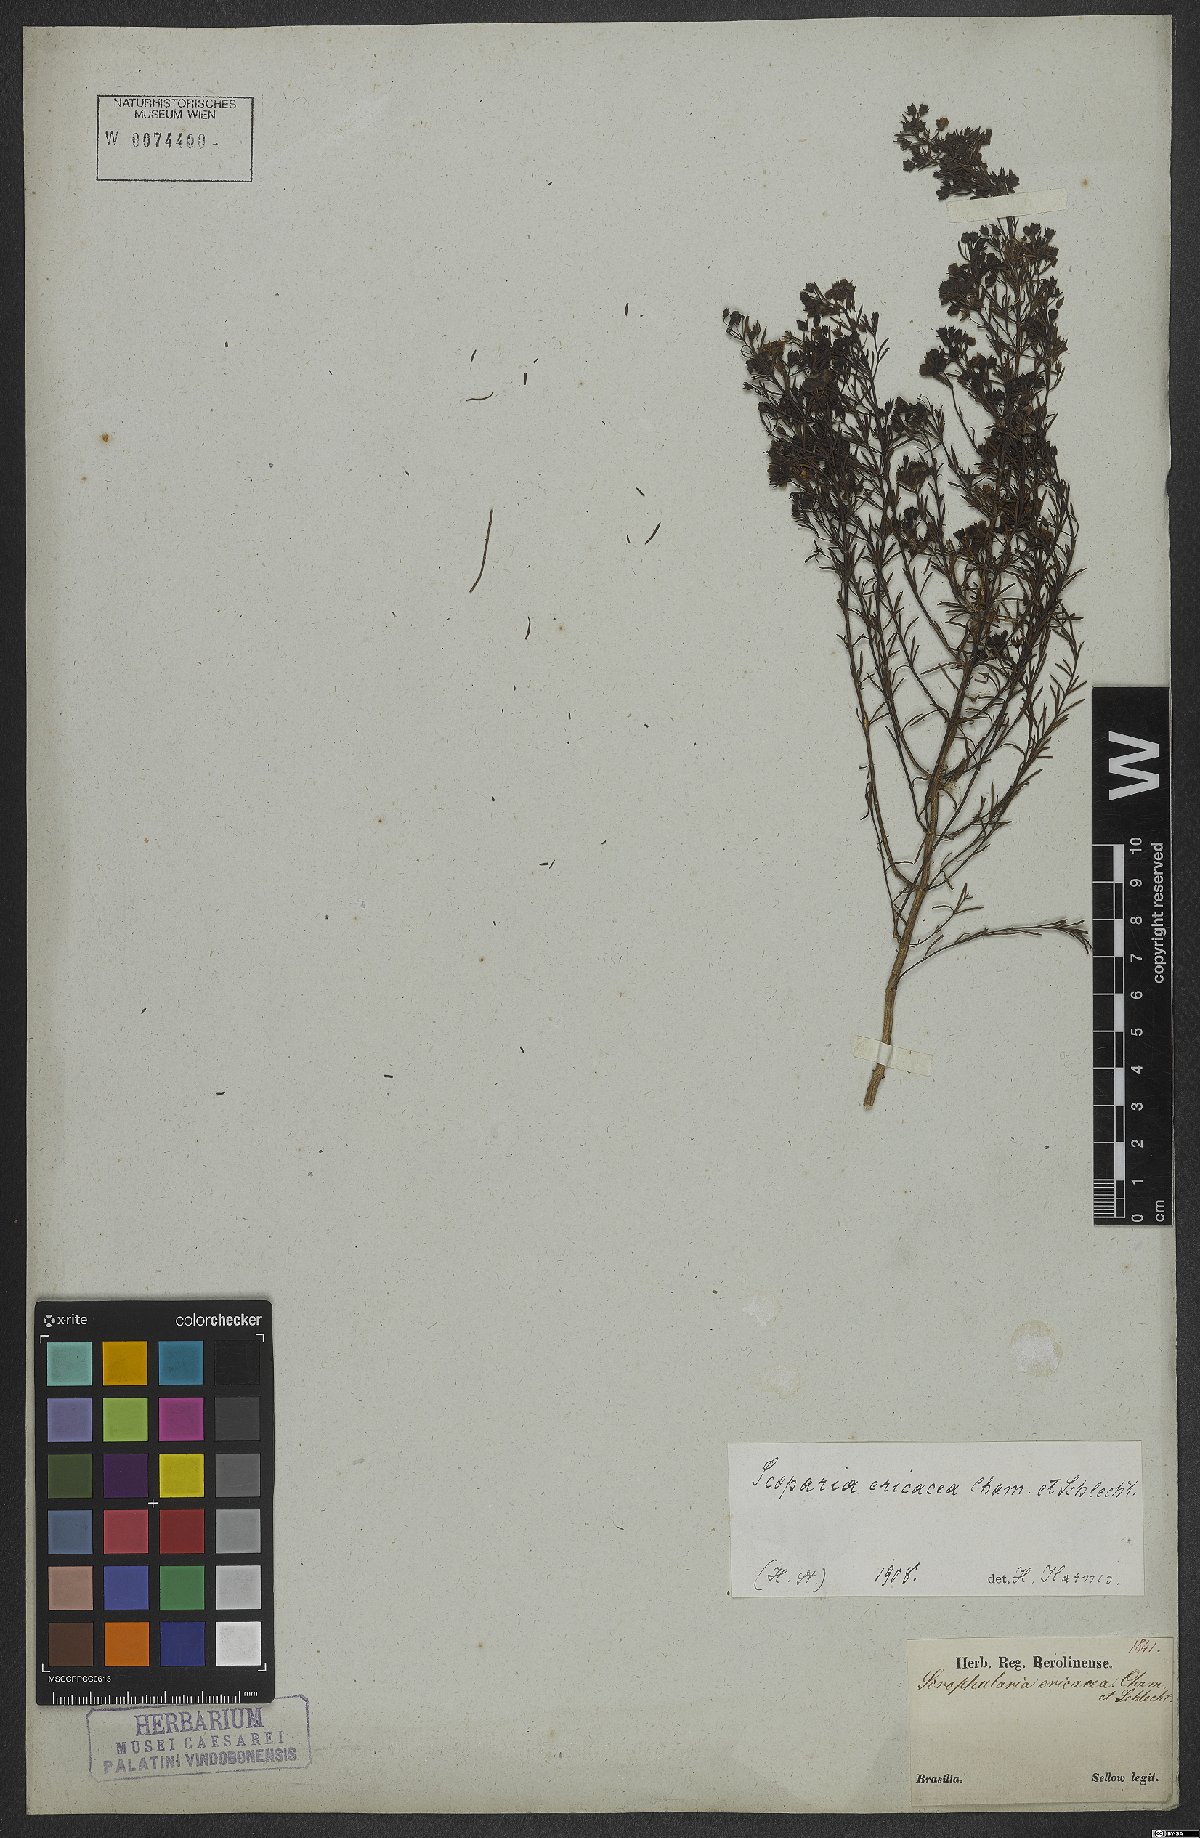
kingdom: Plantae
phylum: Tracheophyta
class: Magnoliopsida
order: Lamiales
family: Plantaginaceae
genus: Scoparia
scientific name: Scoparia ericacea
